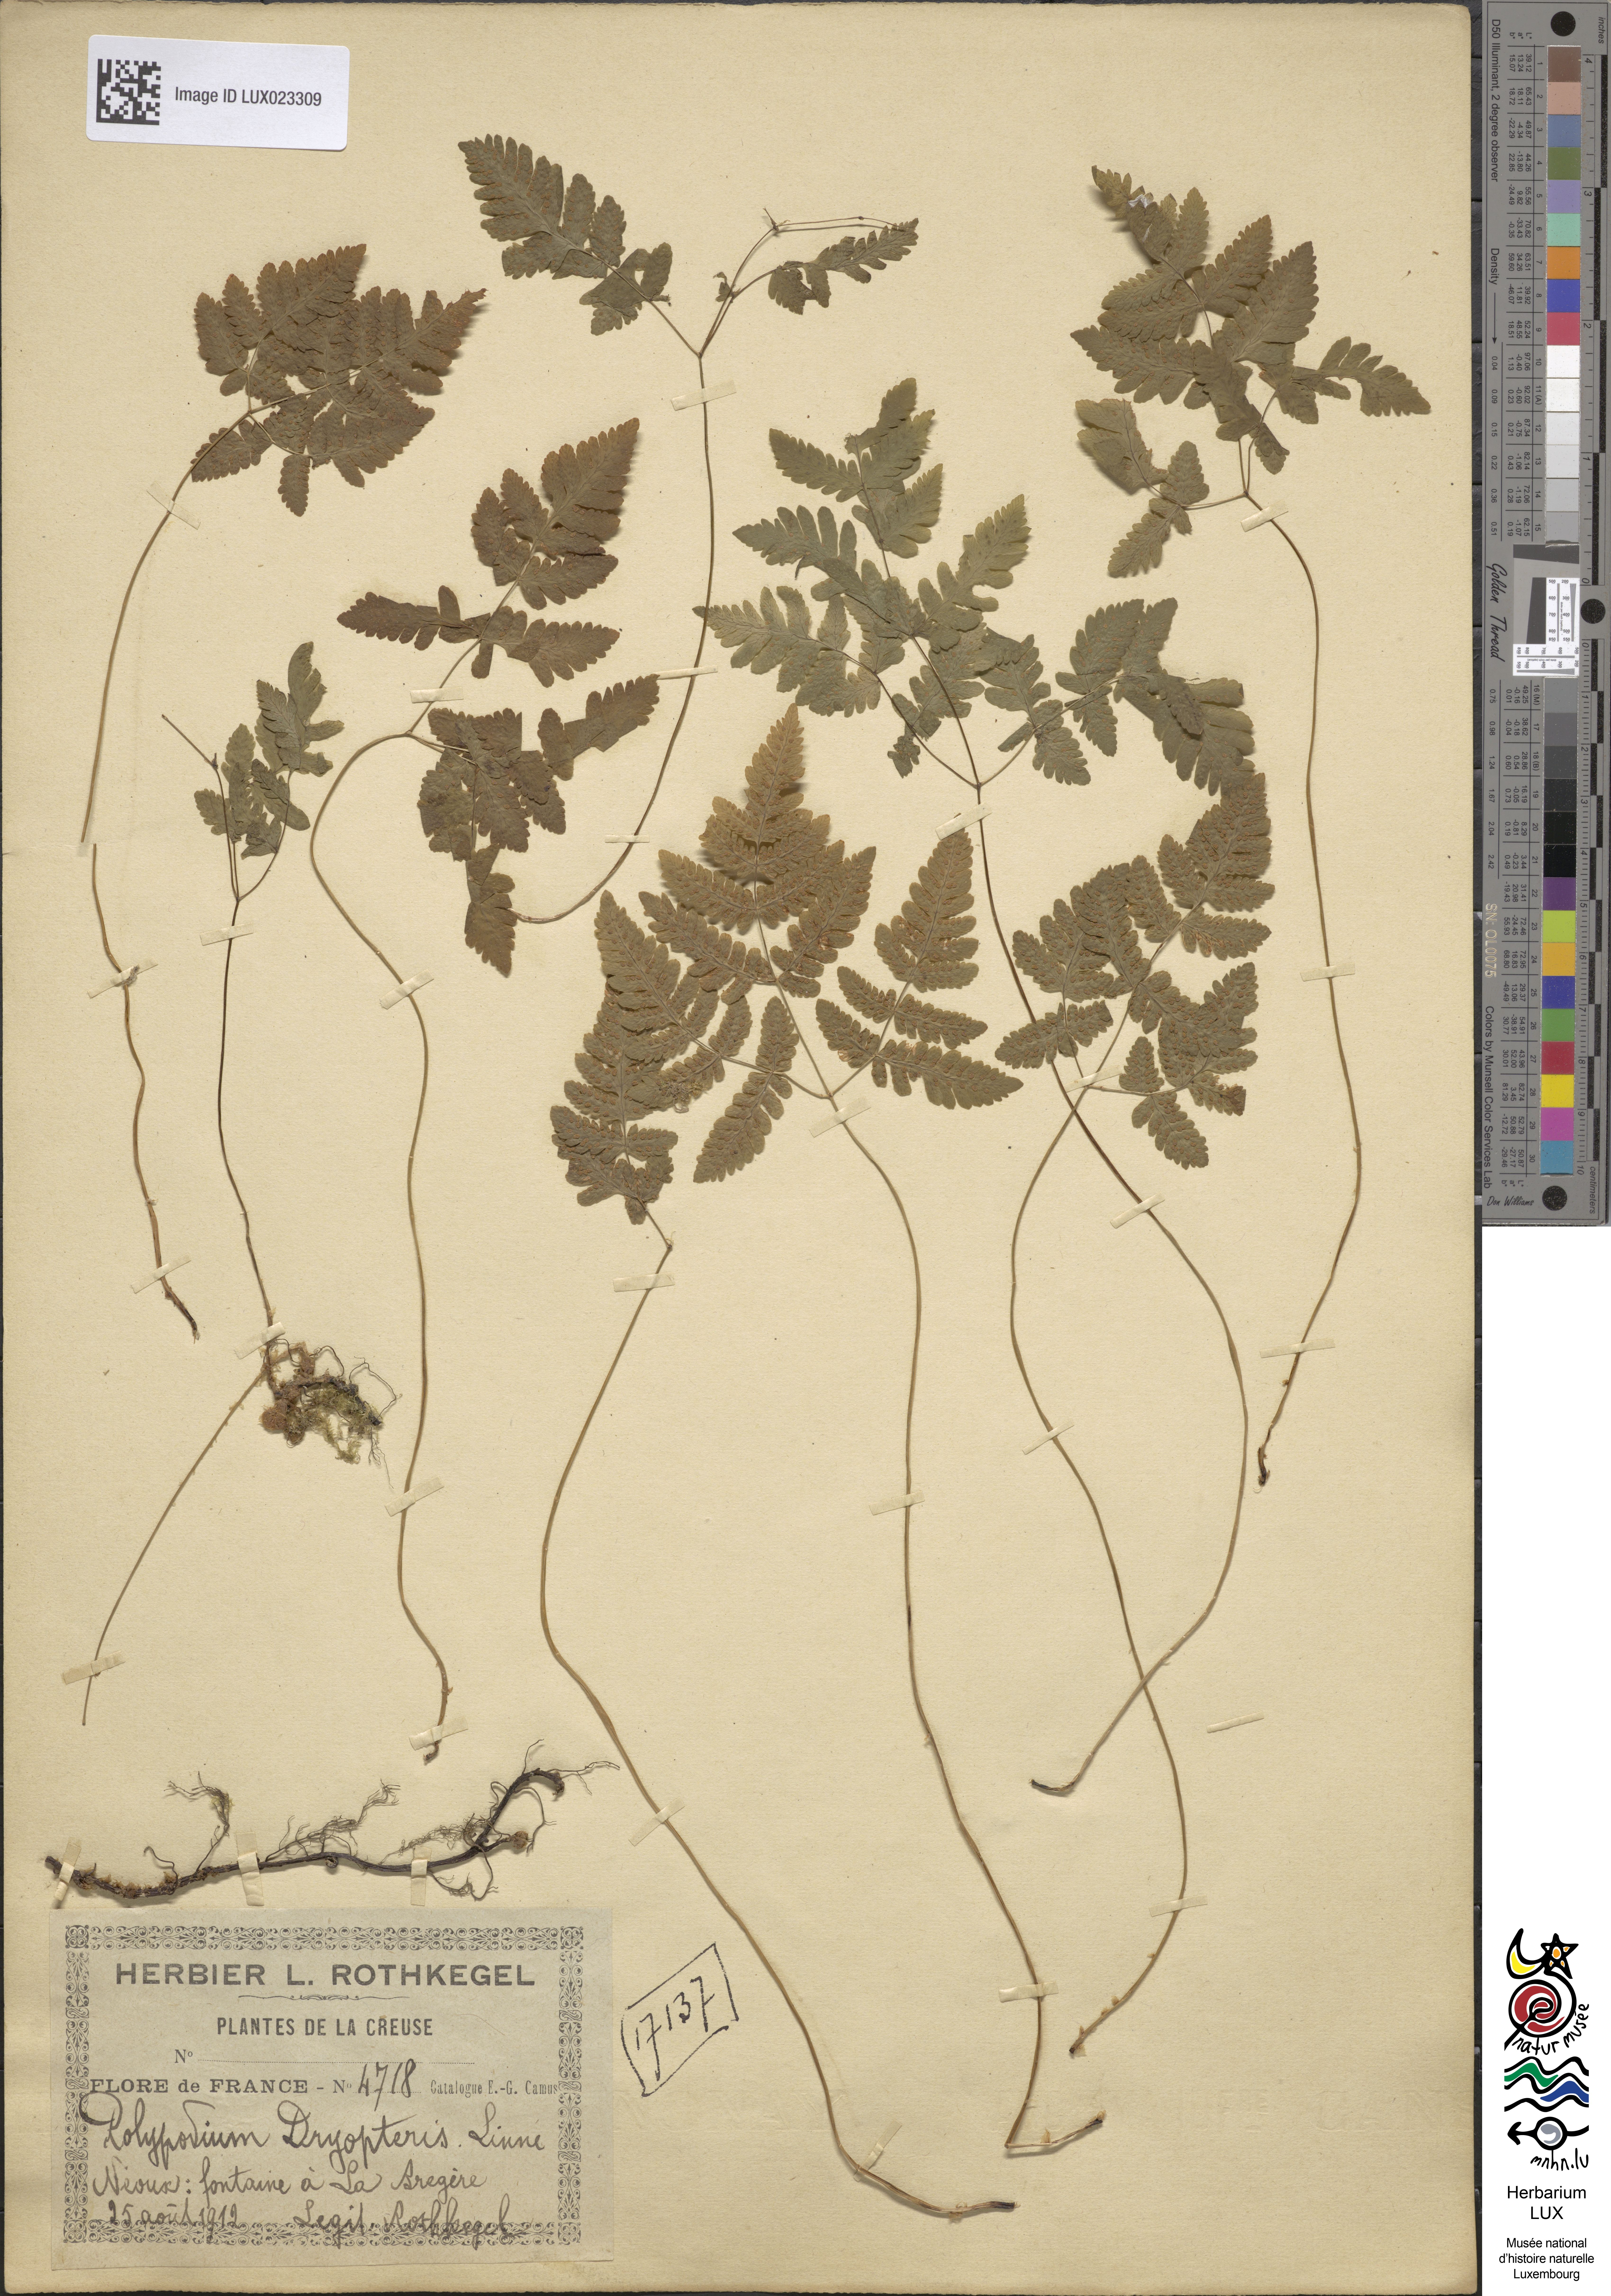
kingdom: Plantae
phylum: Tracheophyta
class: Polypodiopsida
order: Polypodiales
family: Cystopteridaceae
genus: Gymnocarpium
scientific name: Gymnocarpium dryopteris
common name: Oak fern
